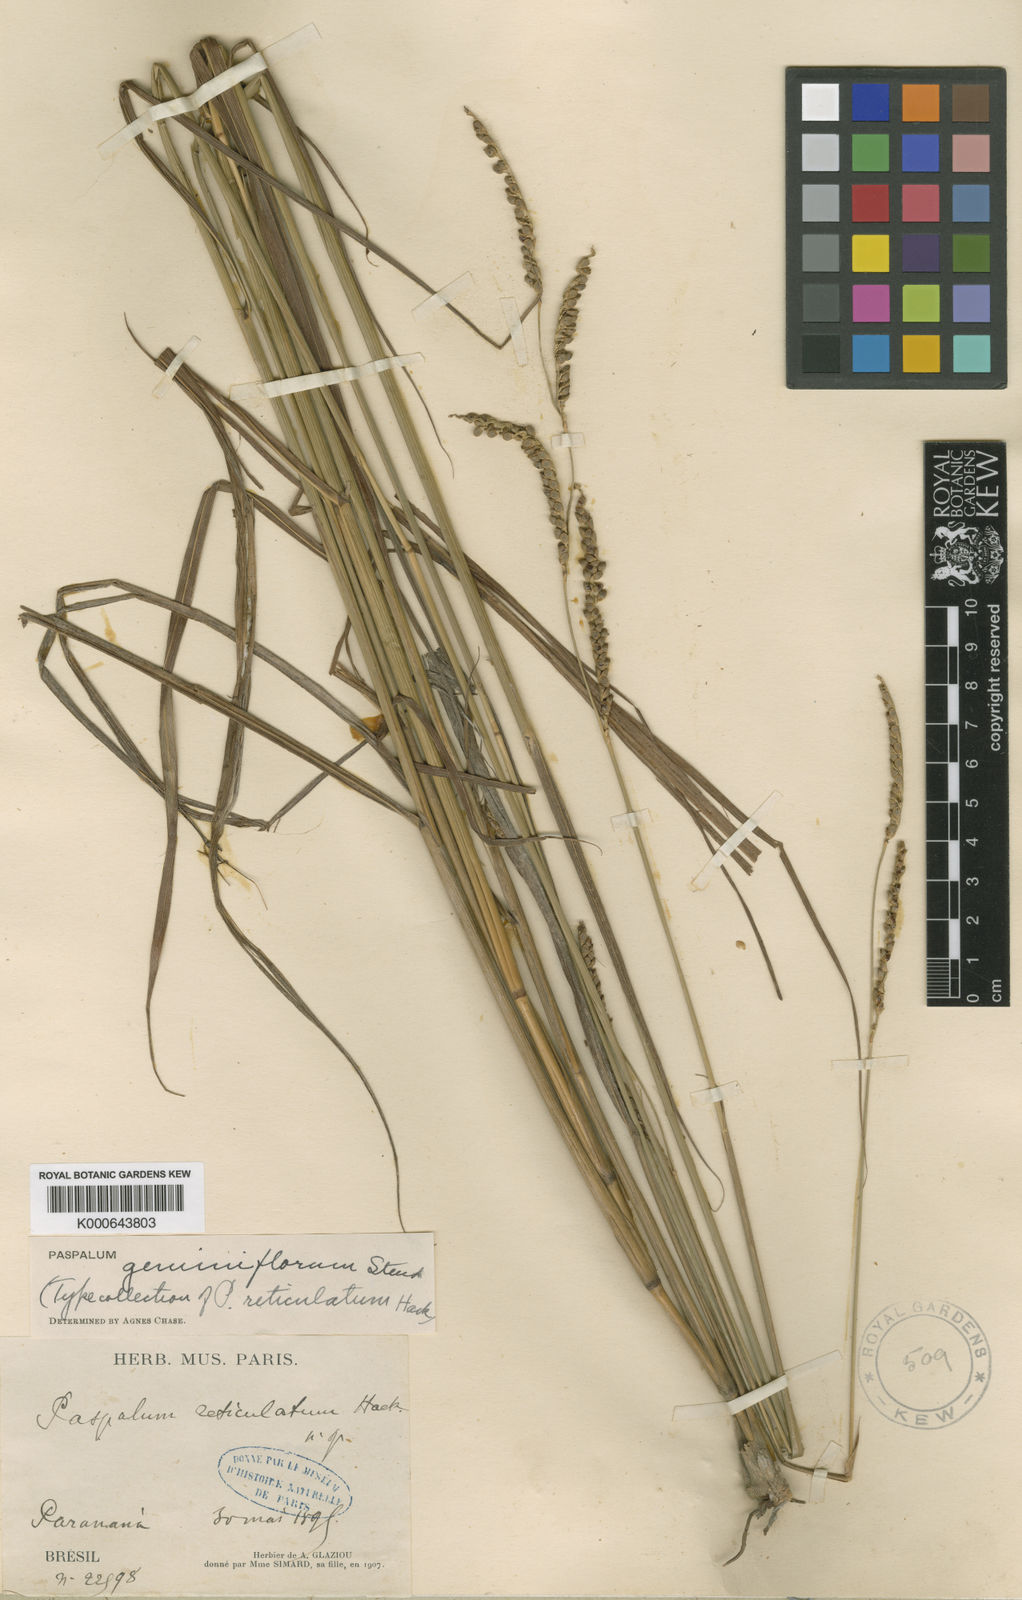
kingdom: Plantae
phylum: Tracheophyta
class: Liliopsida
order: Poales
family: Poaceae
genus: Paspalum
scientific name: Paspalum geminiflorum
